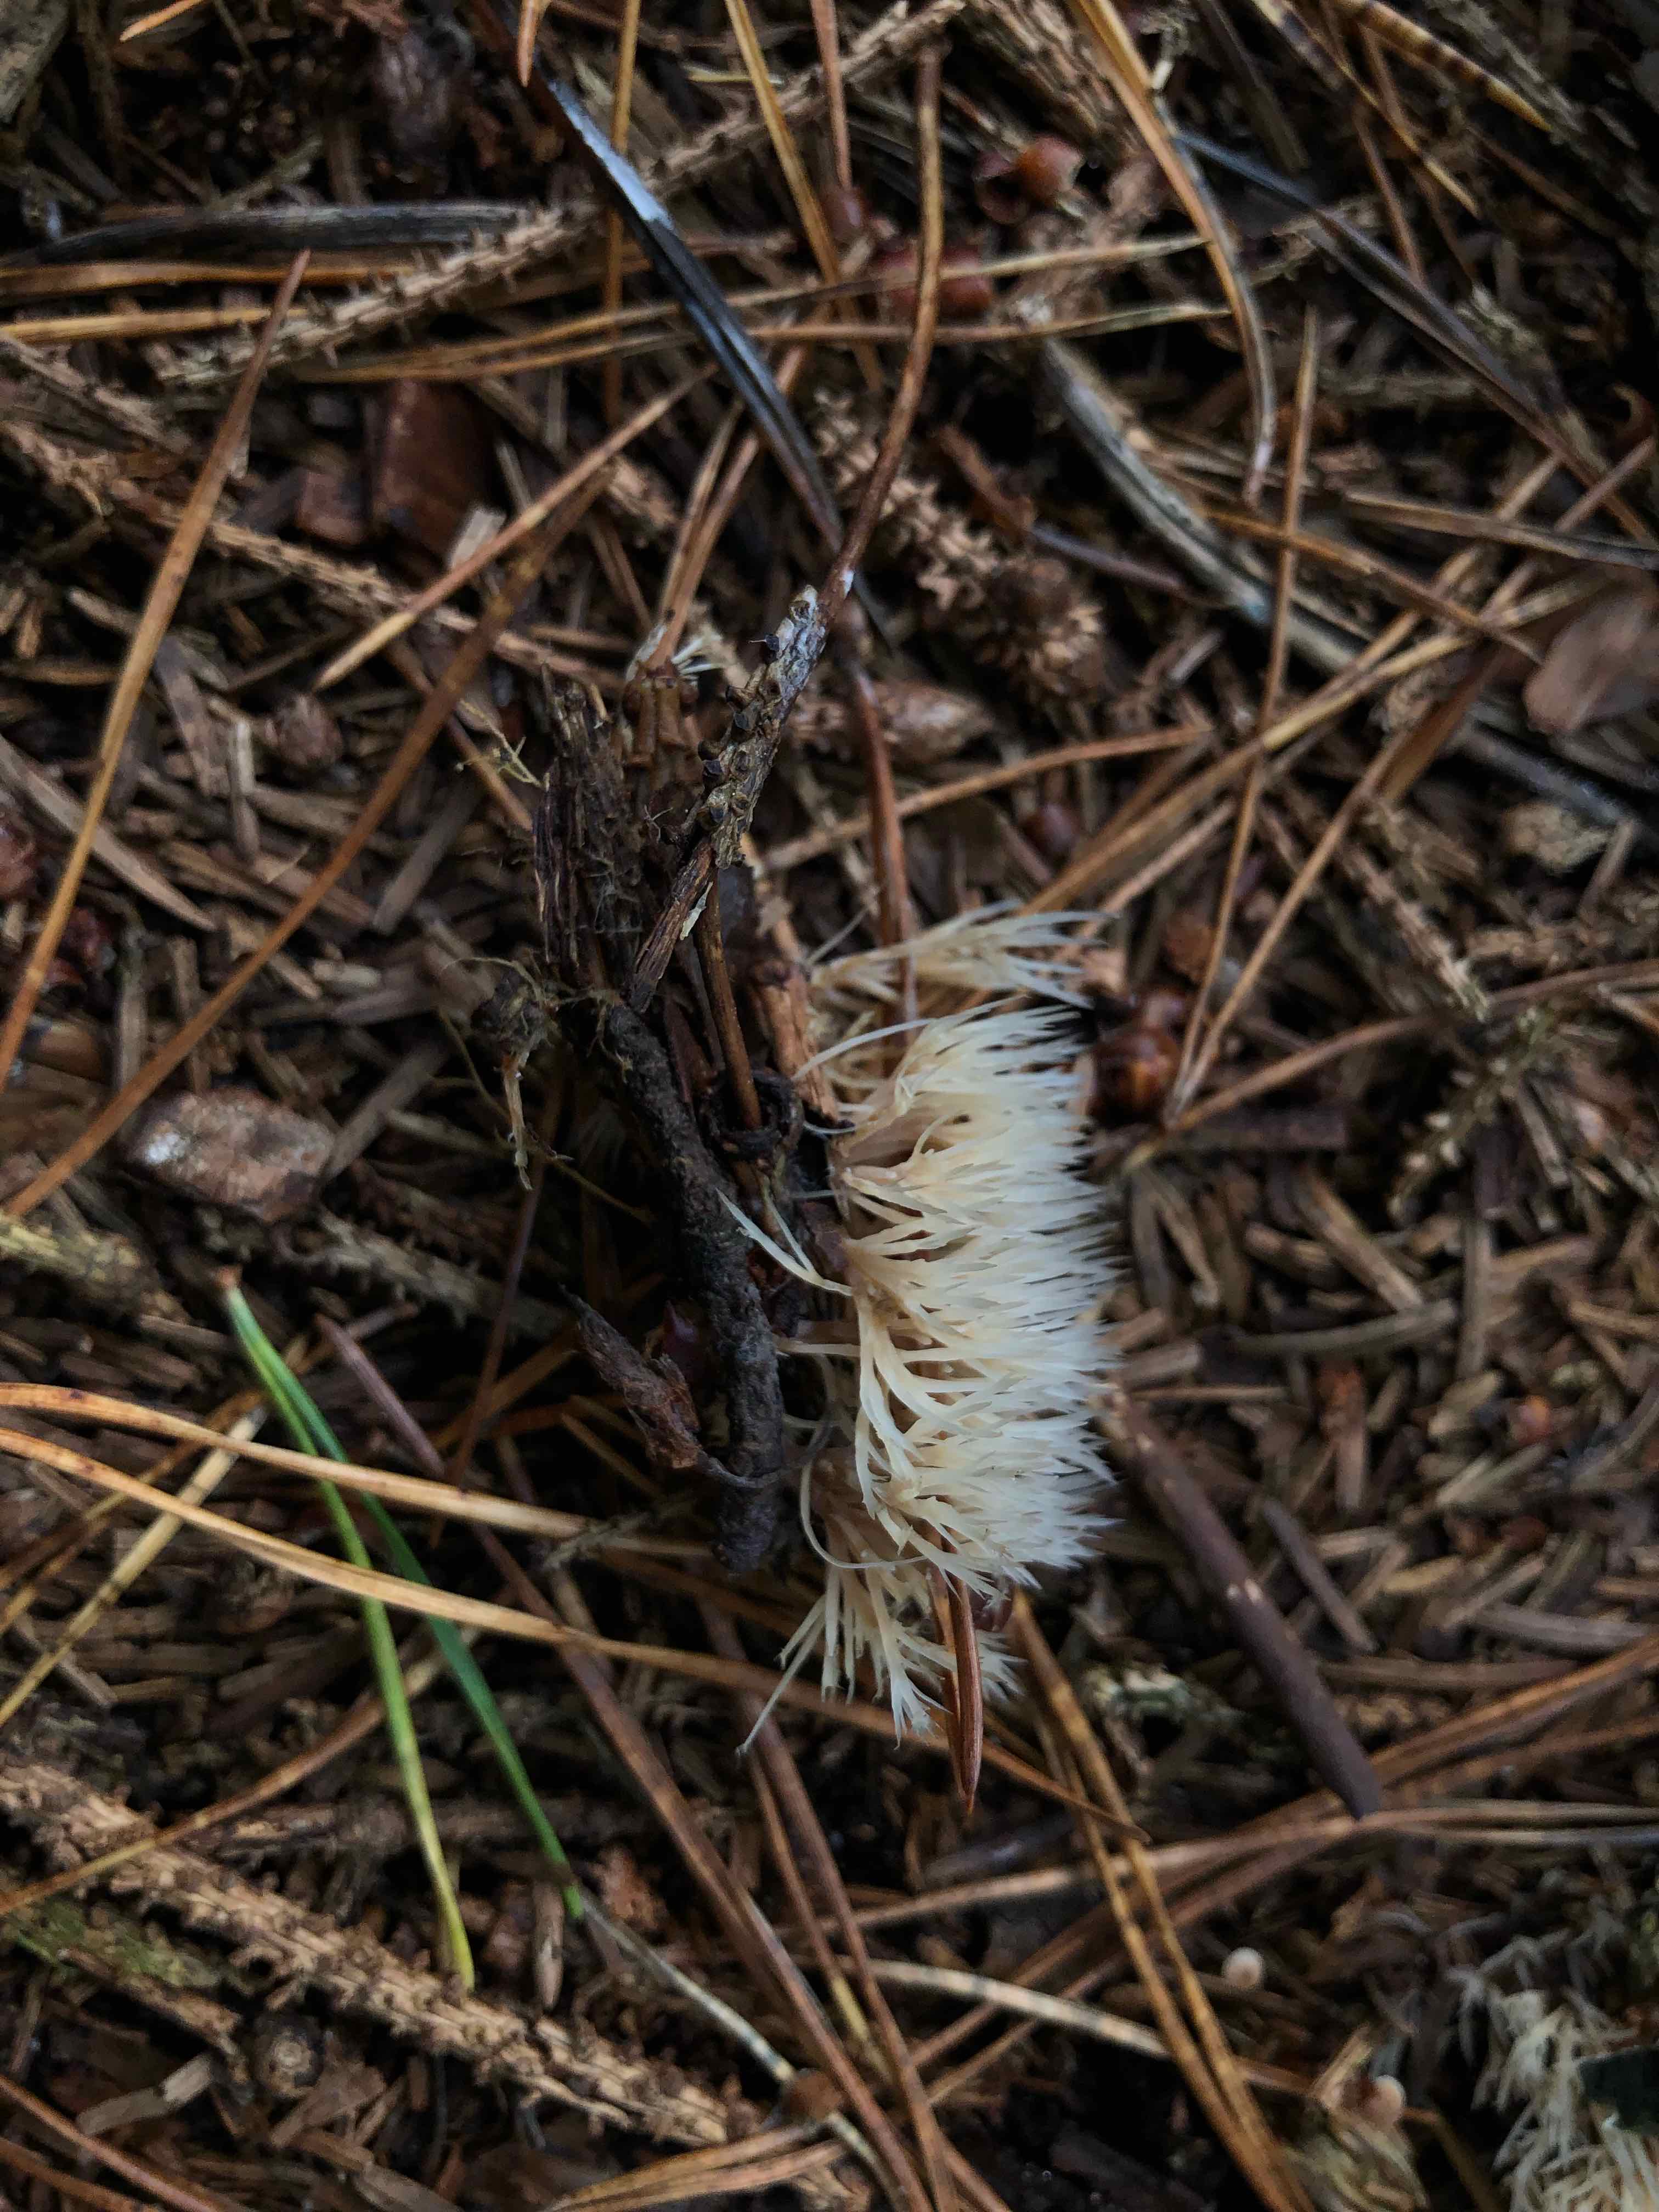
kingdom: Fungi
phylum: Basidiomycota
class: Agaricomycetes
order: Agaricales
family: Pterulaceae
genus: Pterula
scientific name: Pterula multifida
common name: busket fjerkølle
